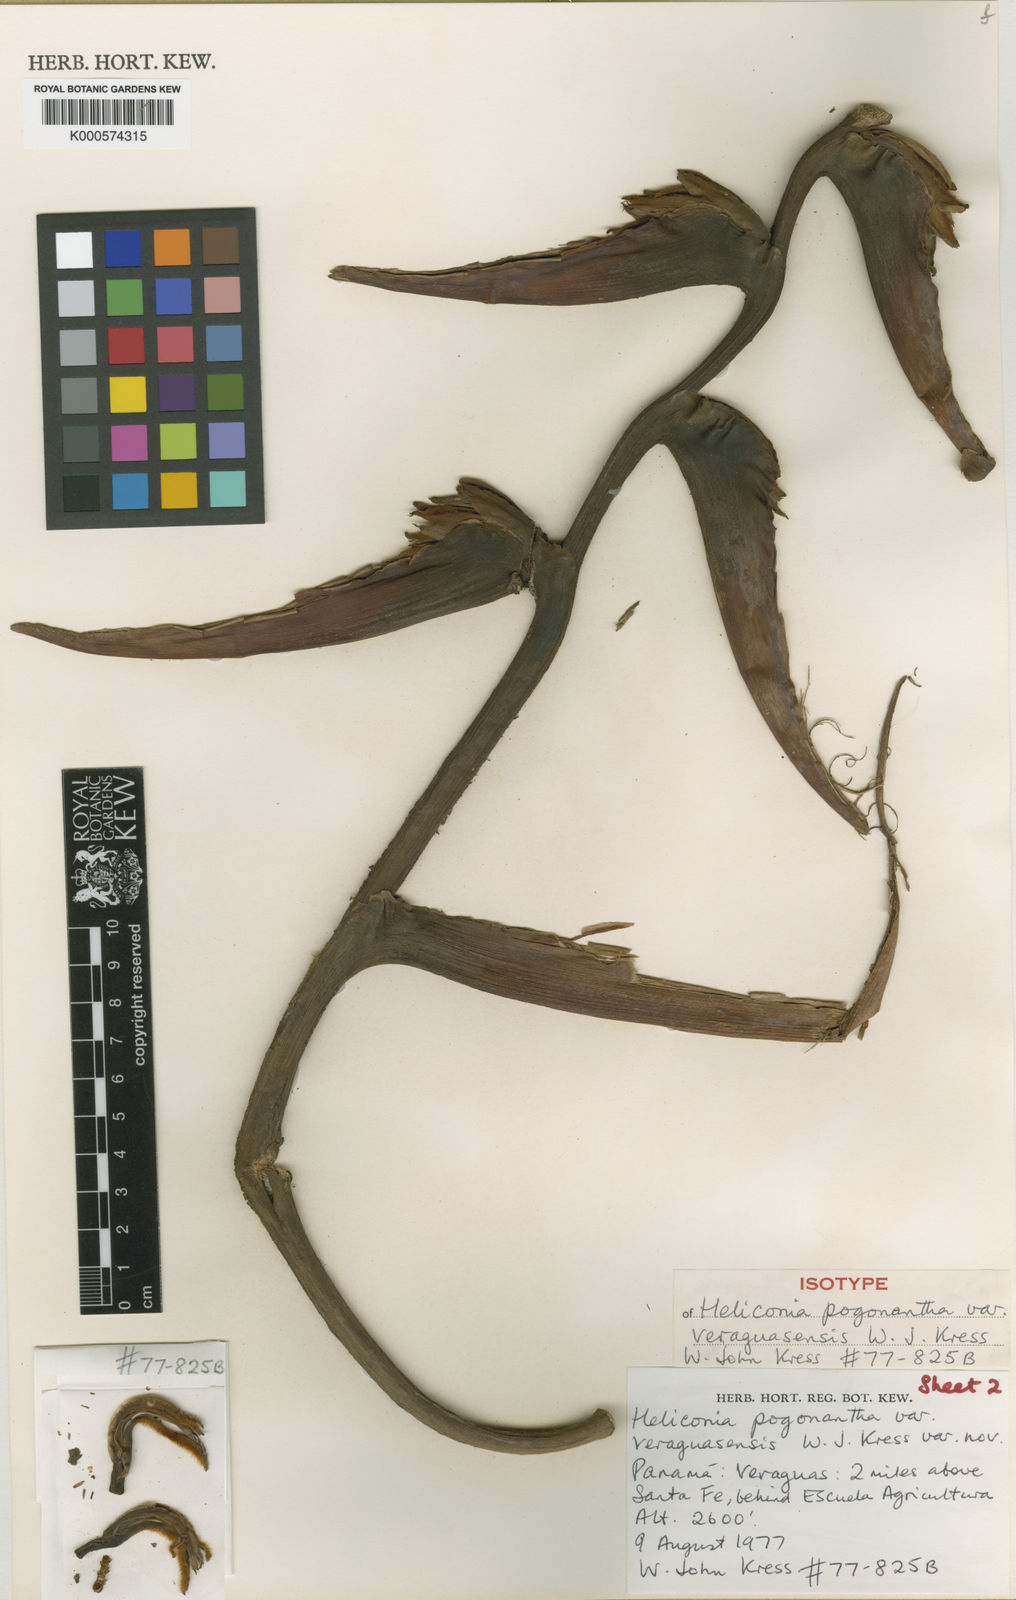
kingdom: Plantae
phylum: Tracheophyta
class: Liliopsida
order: Zingiberales
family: Heliconiaceae
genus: Heliconia
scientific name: Heliconia pogonantha
